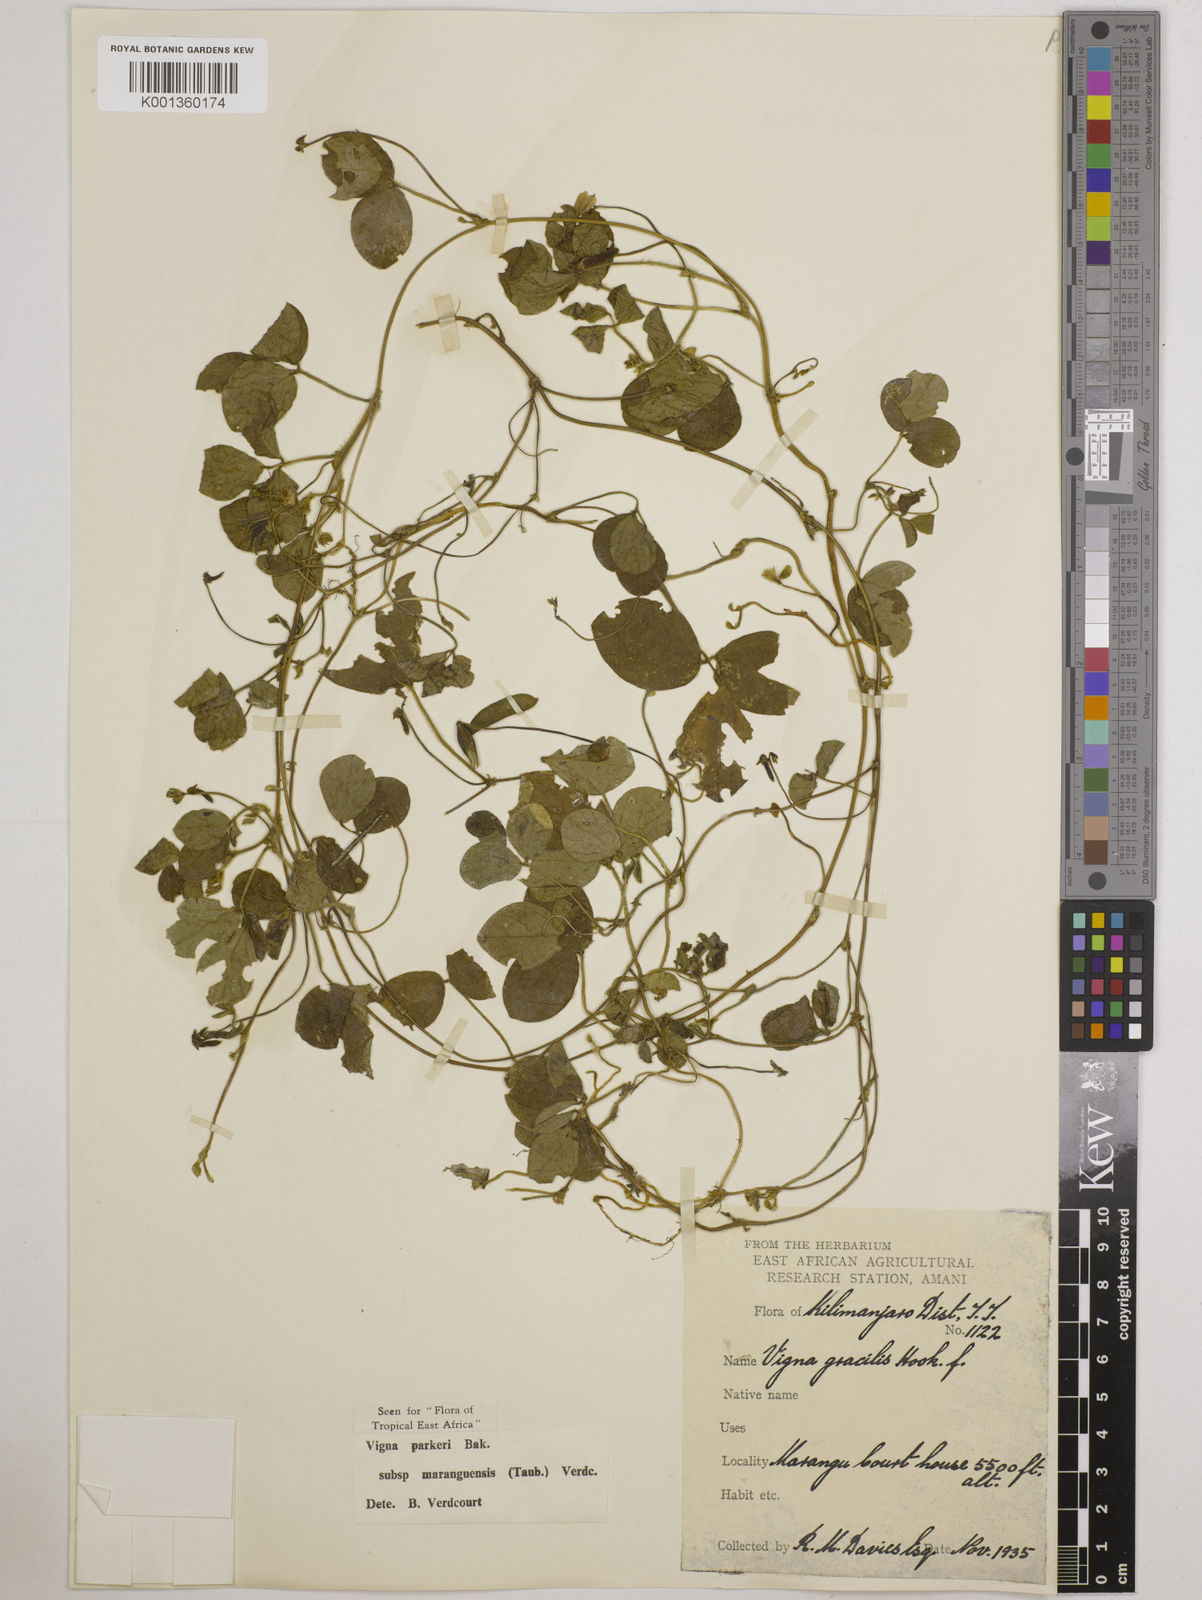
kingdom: Plantae
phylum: Tracheophyta
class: Magnoliopsida
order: Fabales
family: Fabaceae
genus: Vigna
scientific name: Vigna
